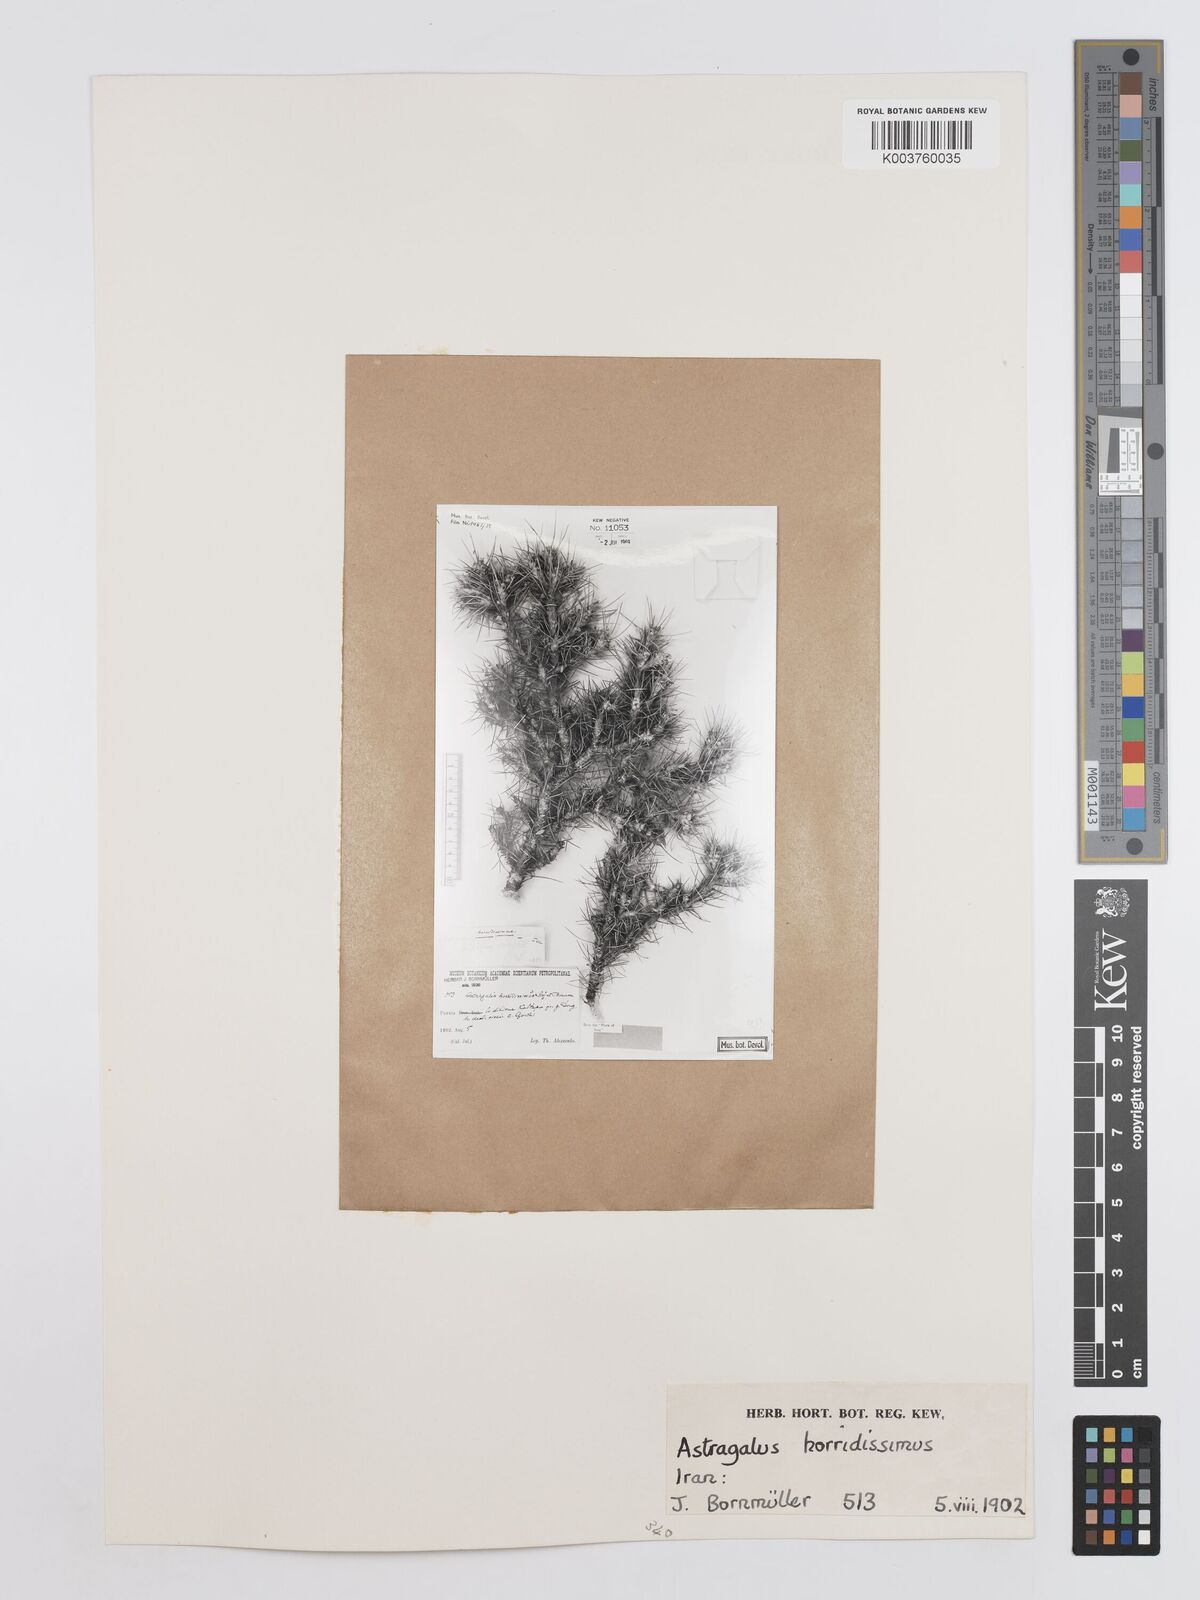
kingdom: Plantae
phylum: Tracheophyta
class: Magnoliopsida
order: Fabales
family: Fabaceae
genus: Astragalus
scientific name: Astragalus verus
